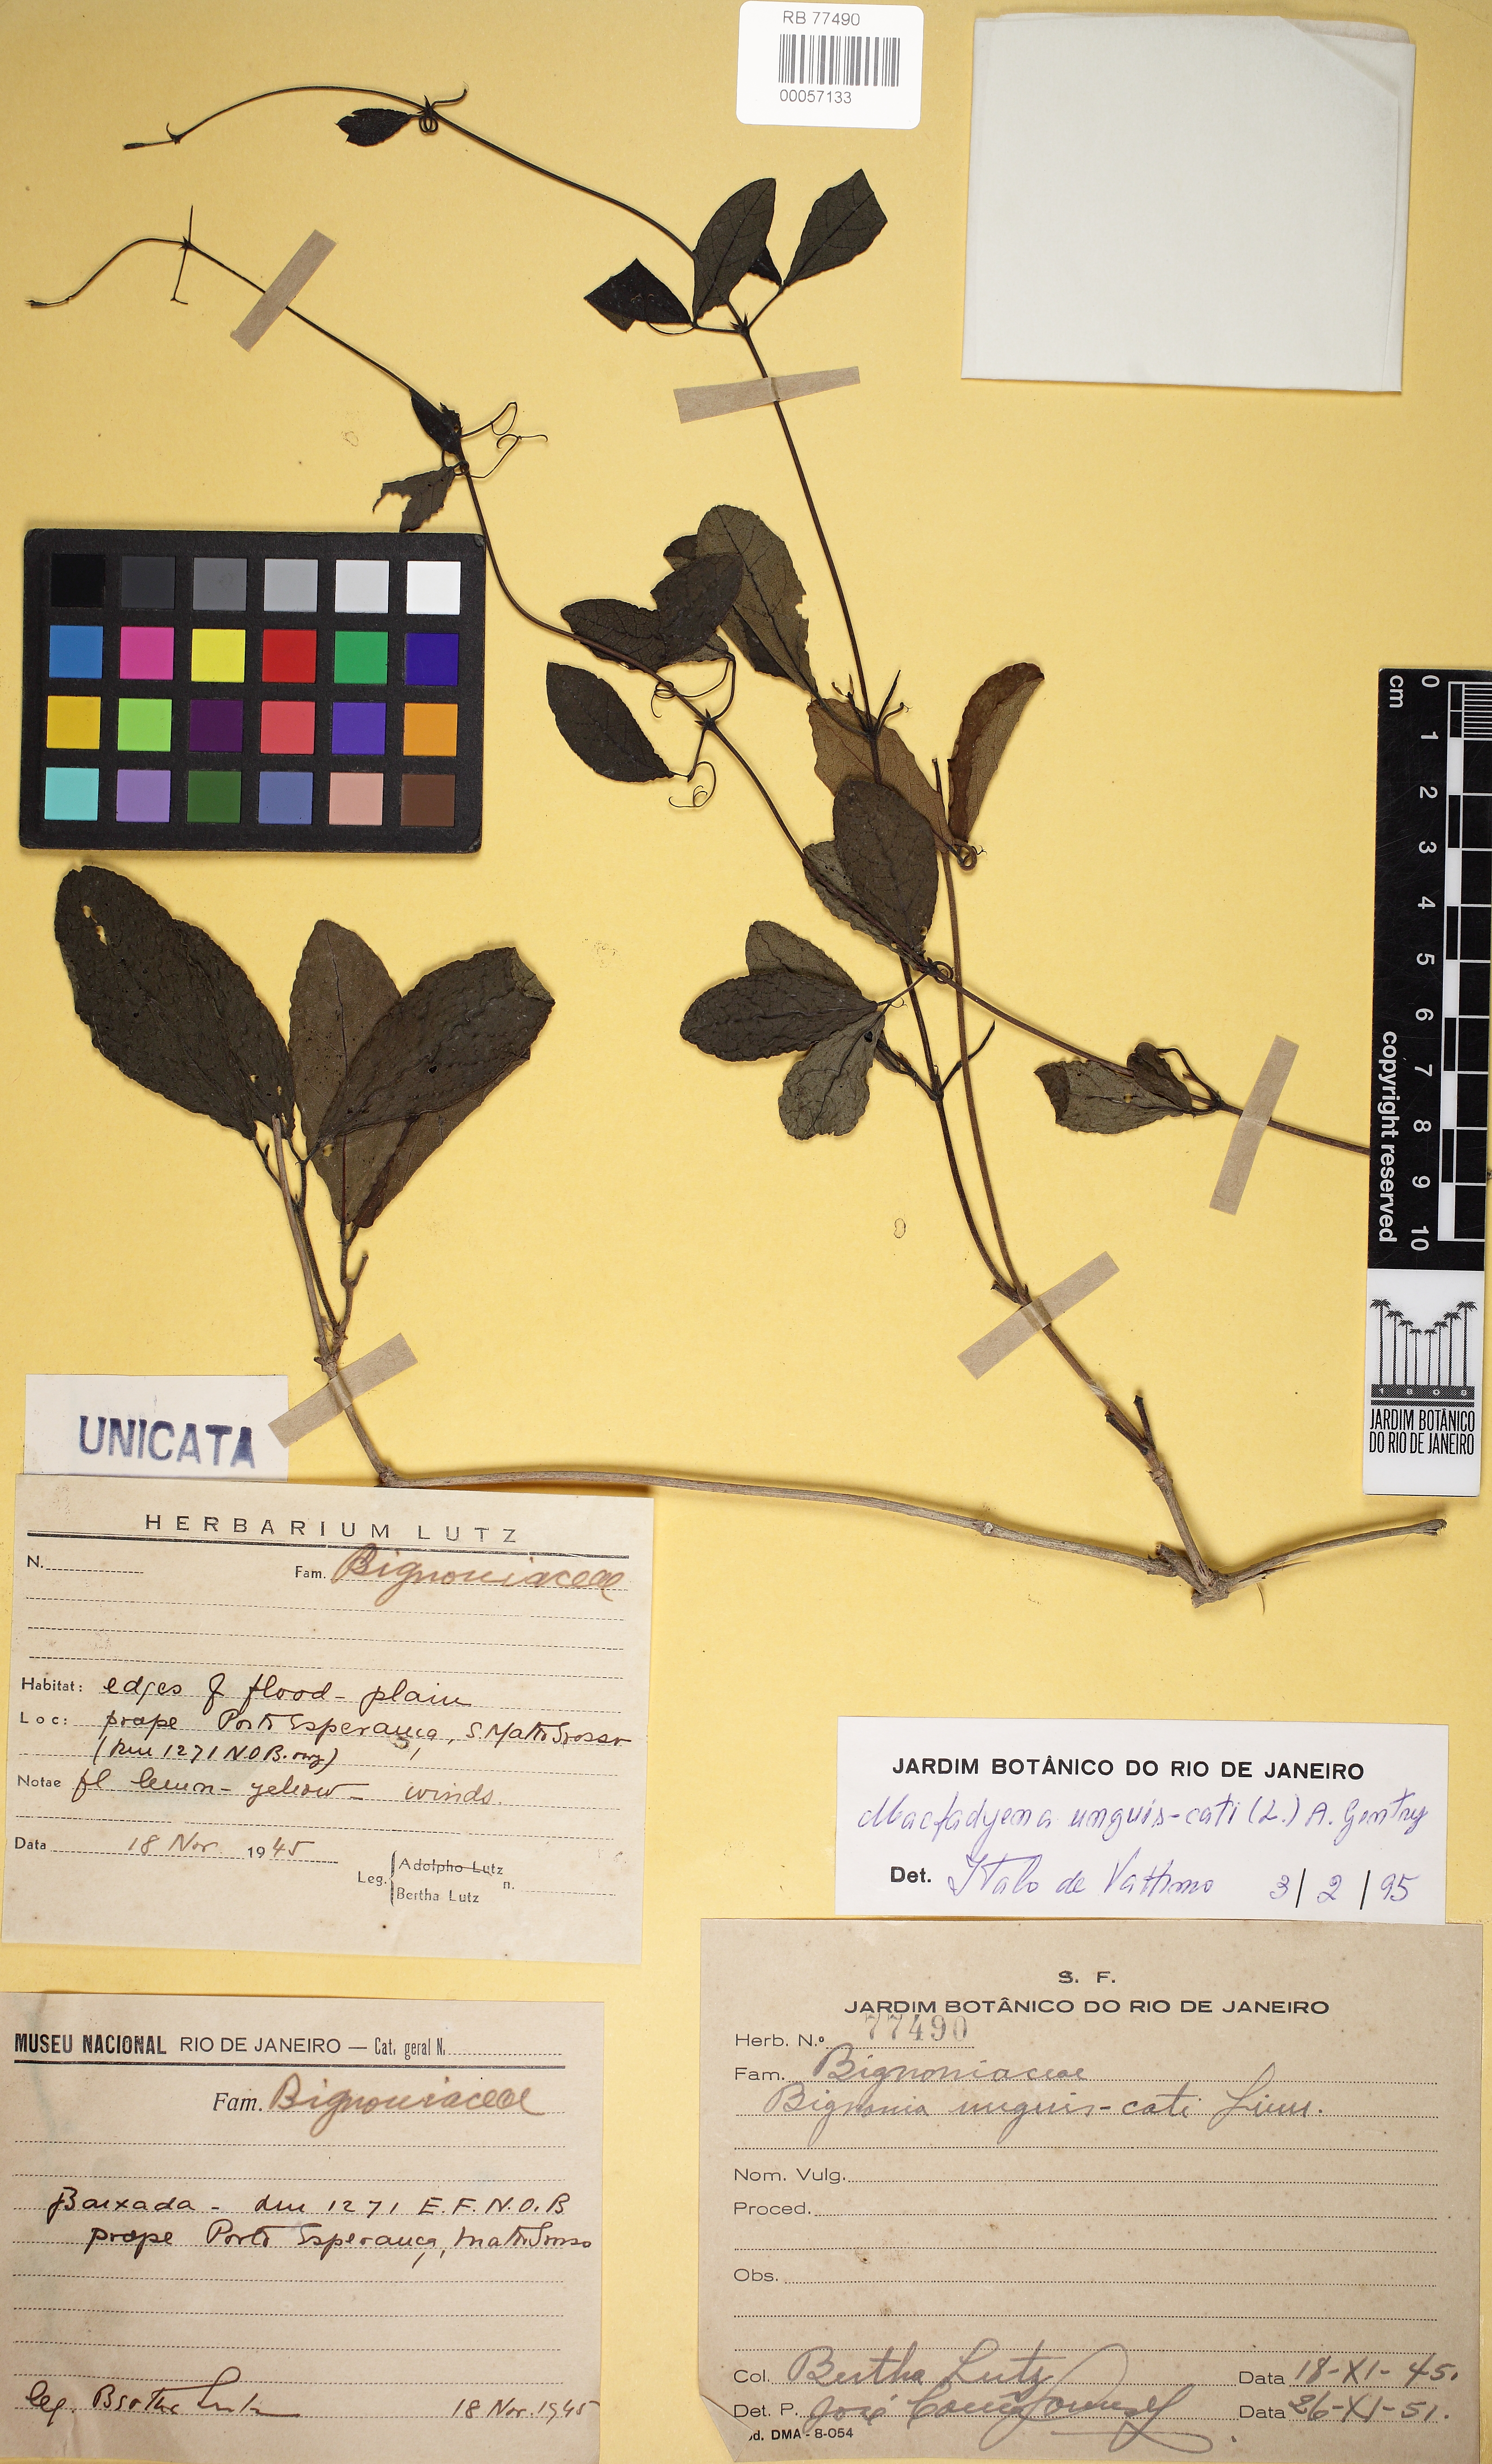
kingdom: Plantae
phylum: Tracheophyta
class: Magnoliopsida
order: Lamiales
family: Bignoniaceae
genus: Dolichandra
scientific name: Dolichandra unguis-cati
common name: Catclaw vine
